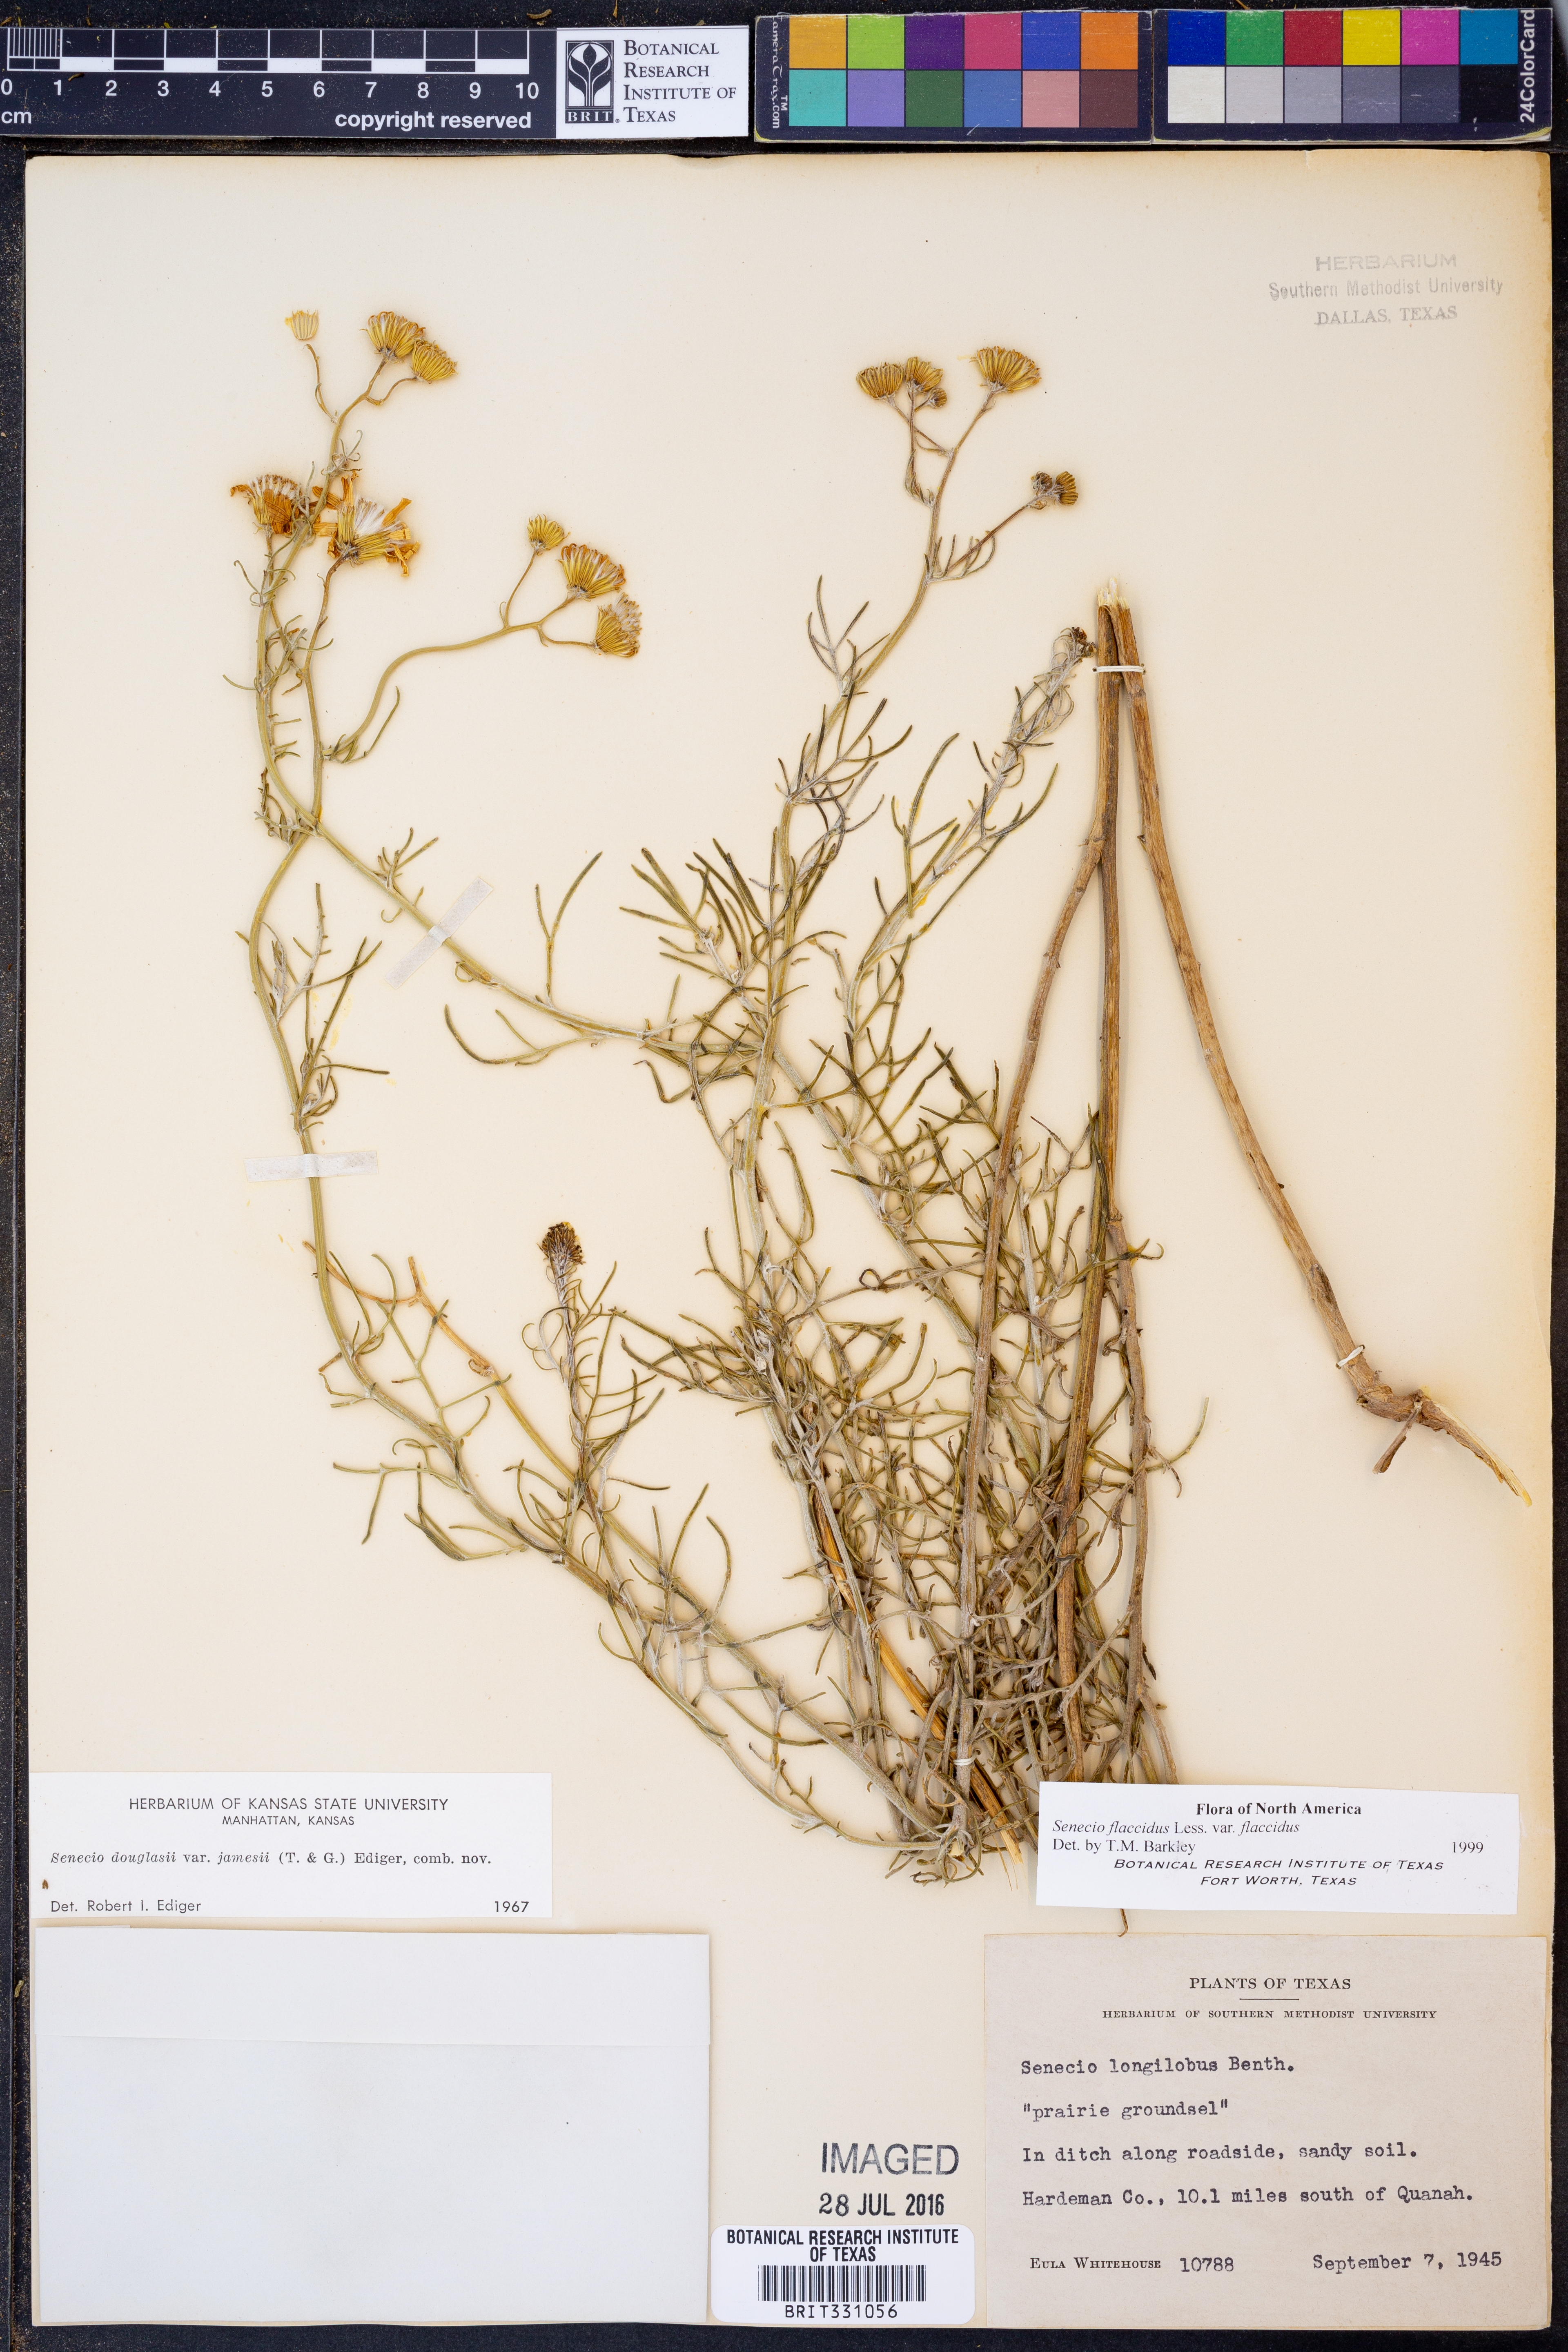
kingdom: Plantae
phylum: Tracheophyta
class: Magnoliopsida
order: Asterales
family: Asteraceae
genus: Senecio
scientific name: Senecio flaccidus
